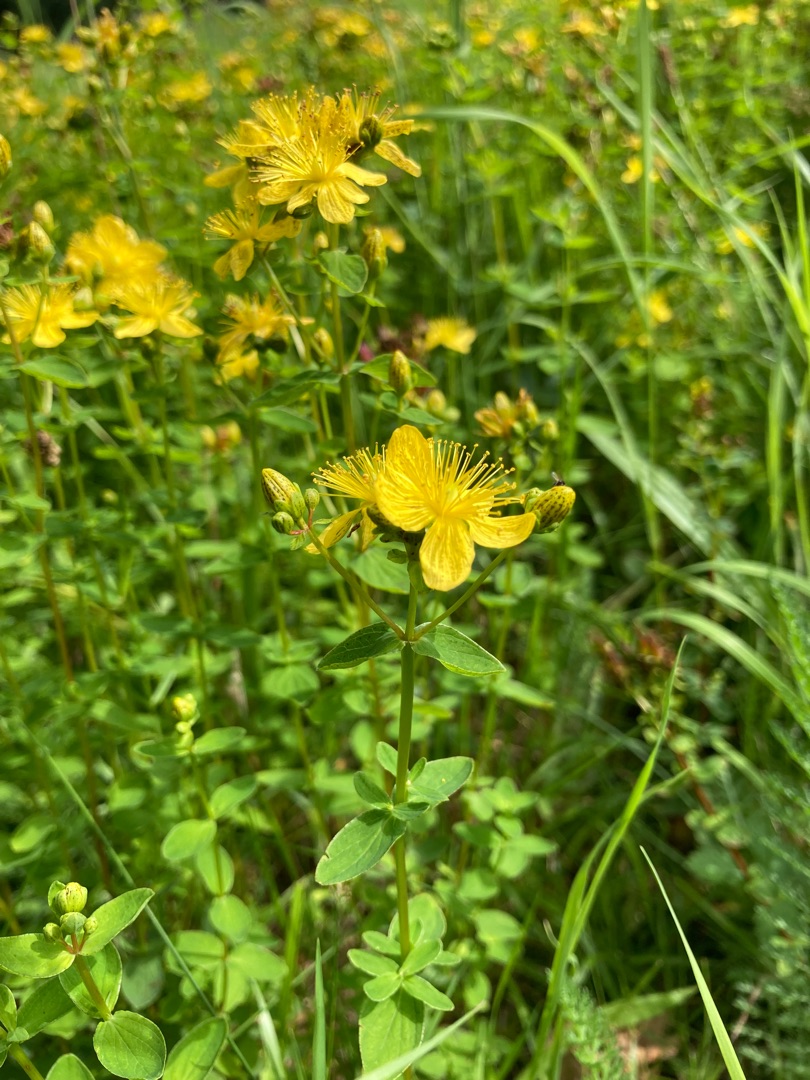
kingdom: Plantae
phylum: Tracheophyta
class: Magnoliopsida
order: Malpighiales
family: Hypericaceae
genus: Hypericum
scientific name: Hypericum maculatum
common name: Kantet perikon
